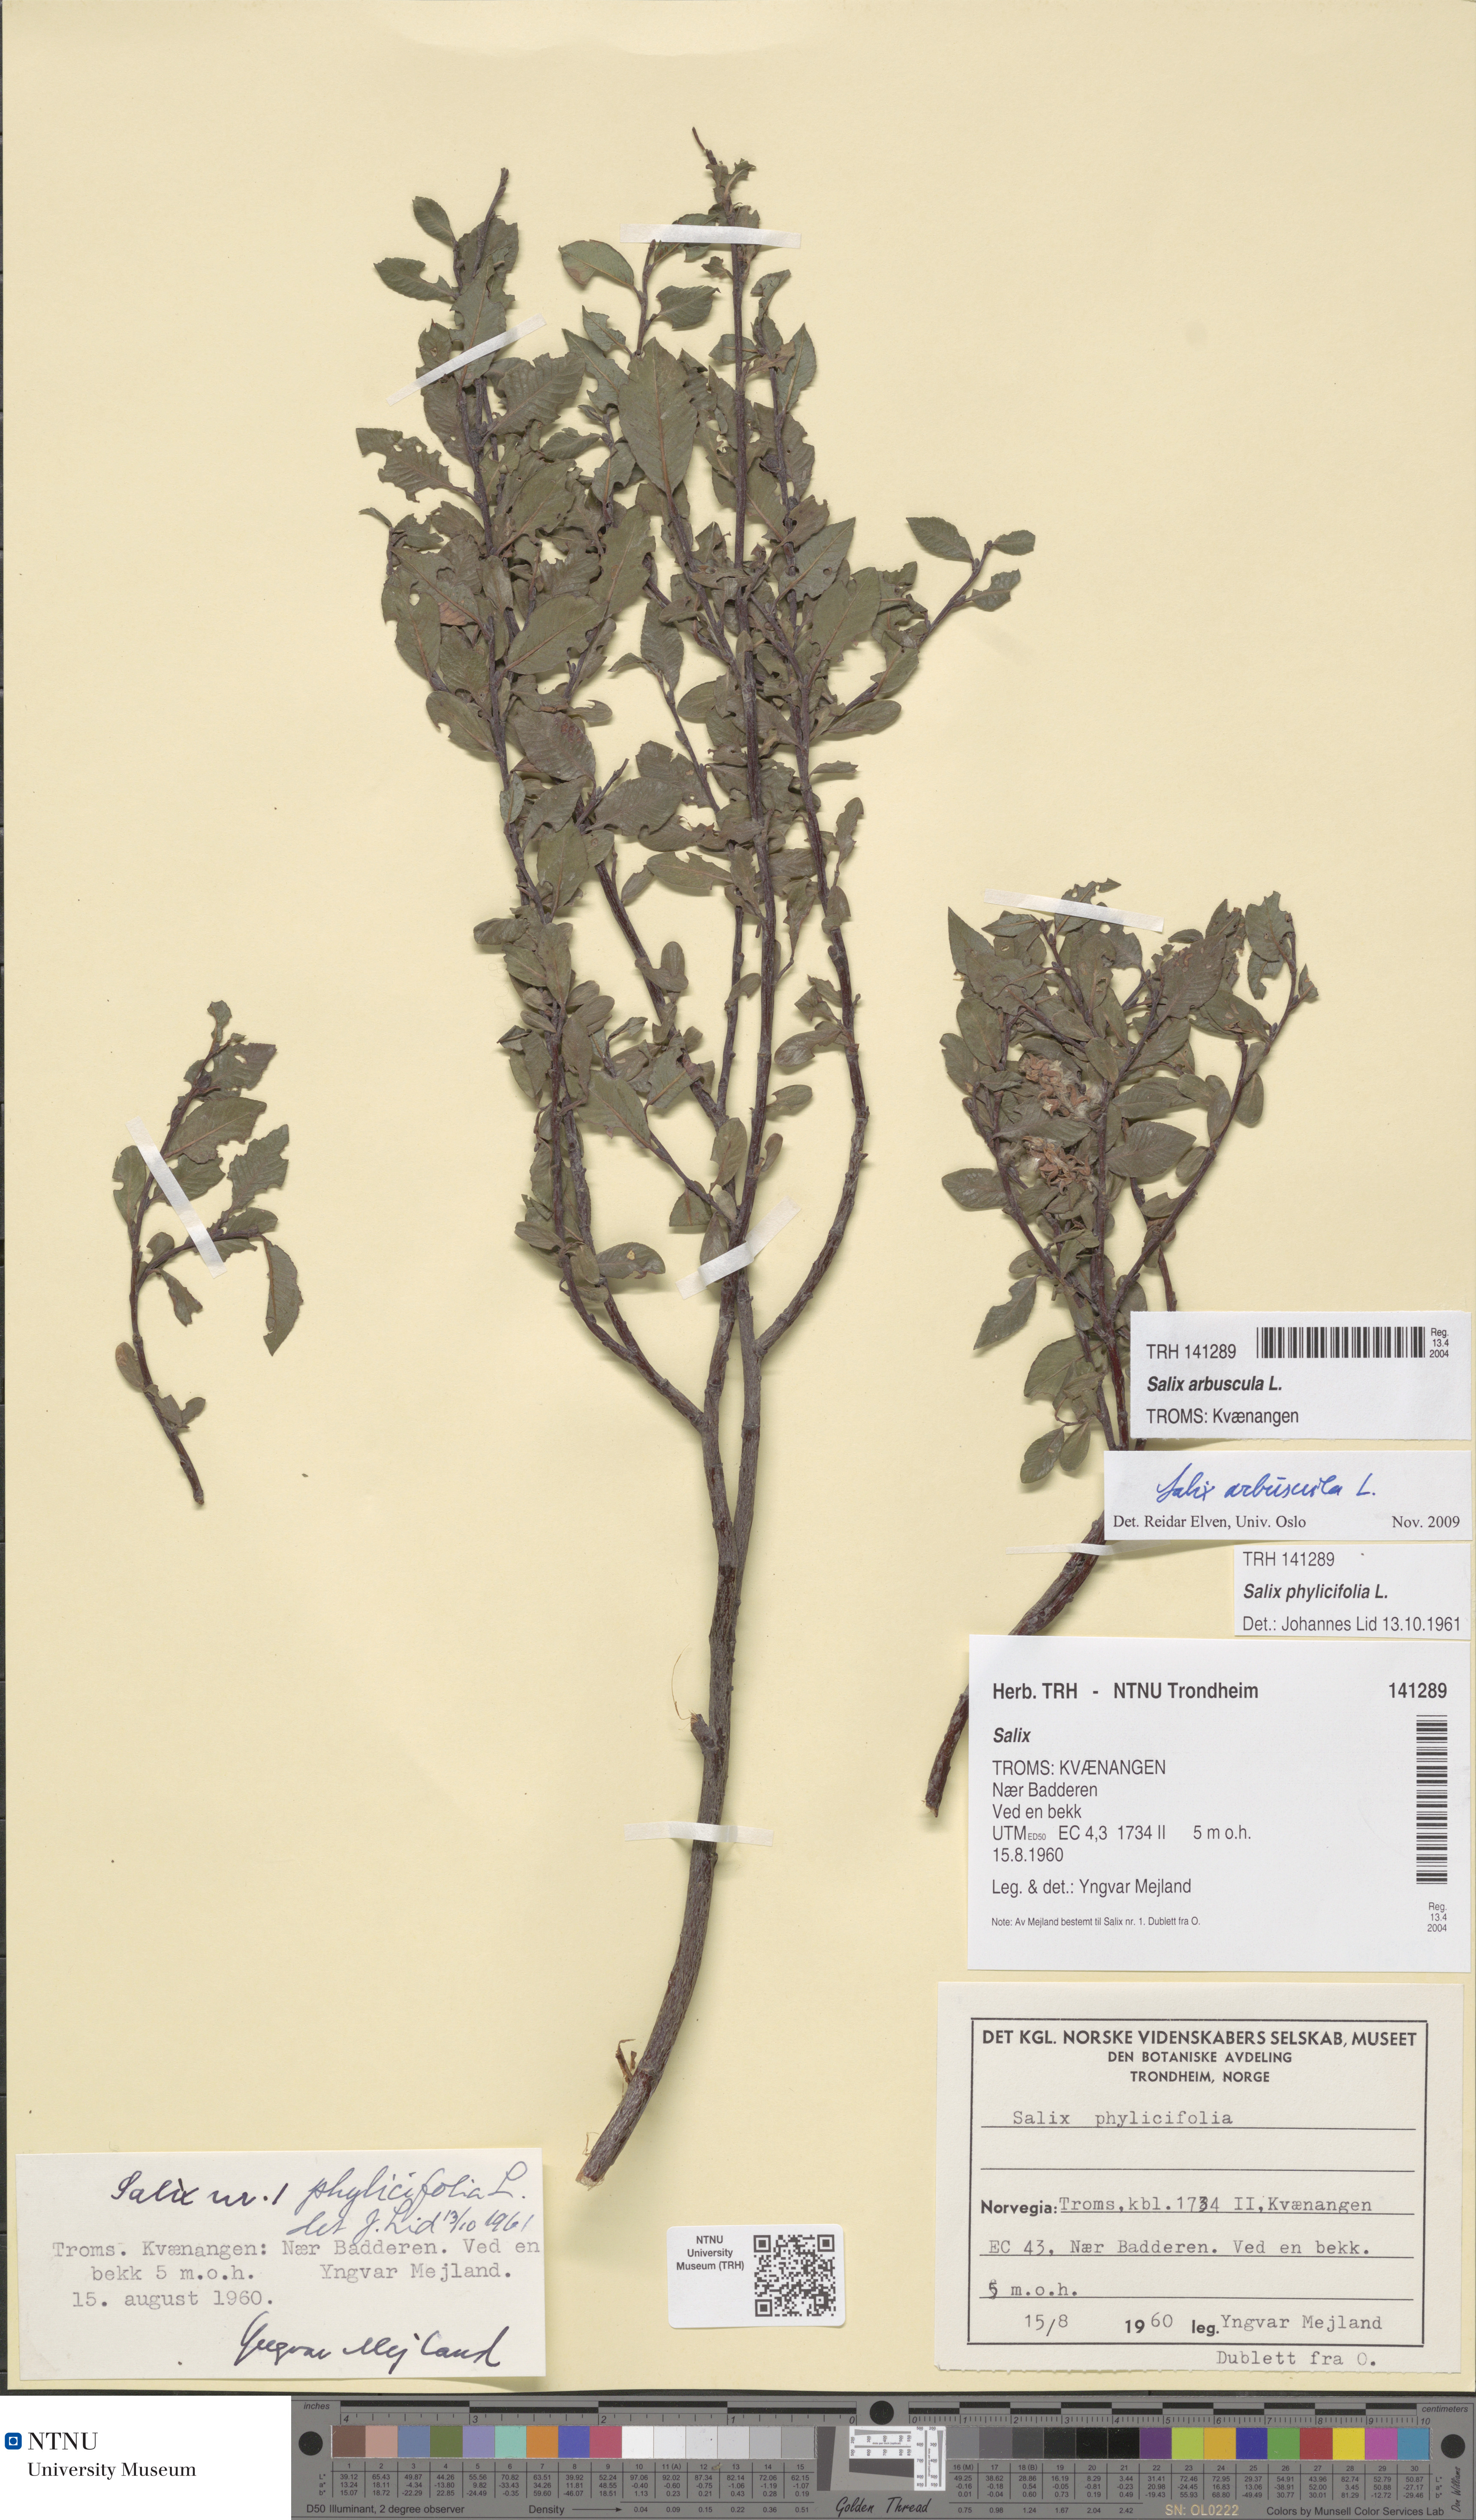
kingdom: Plantae
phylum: Tracheophyta
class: Magnoliopsida
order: Malpighiales
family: Salicaceae
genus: Salix
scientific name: Salix arbuscula
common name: Mountain willow
